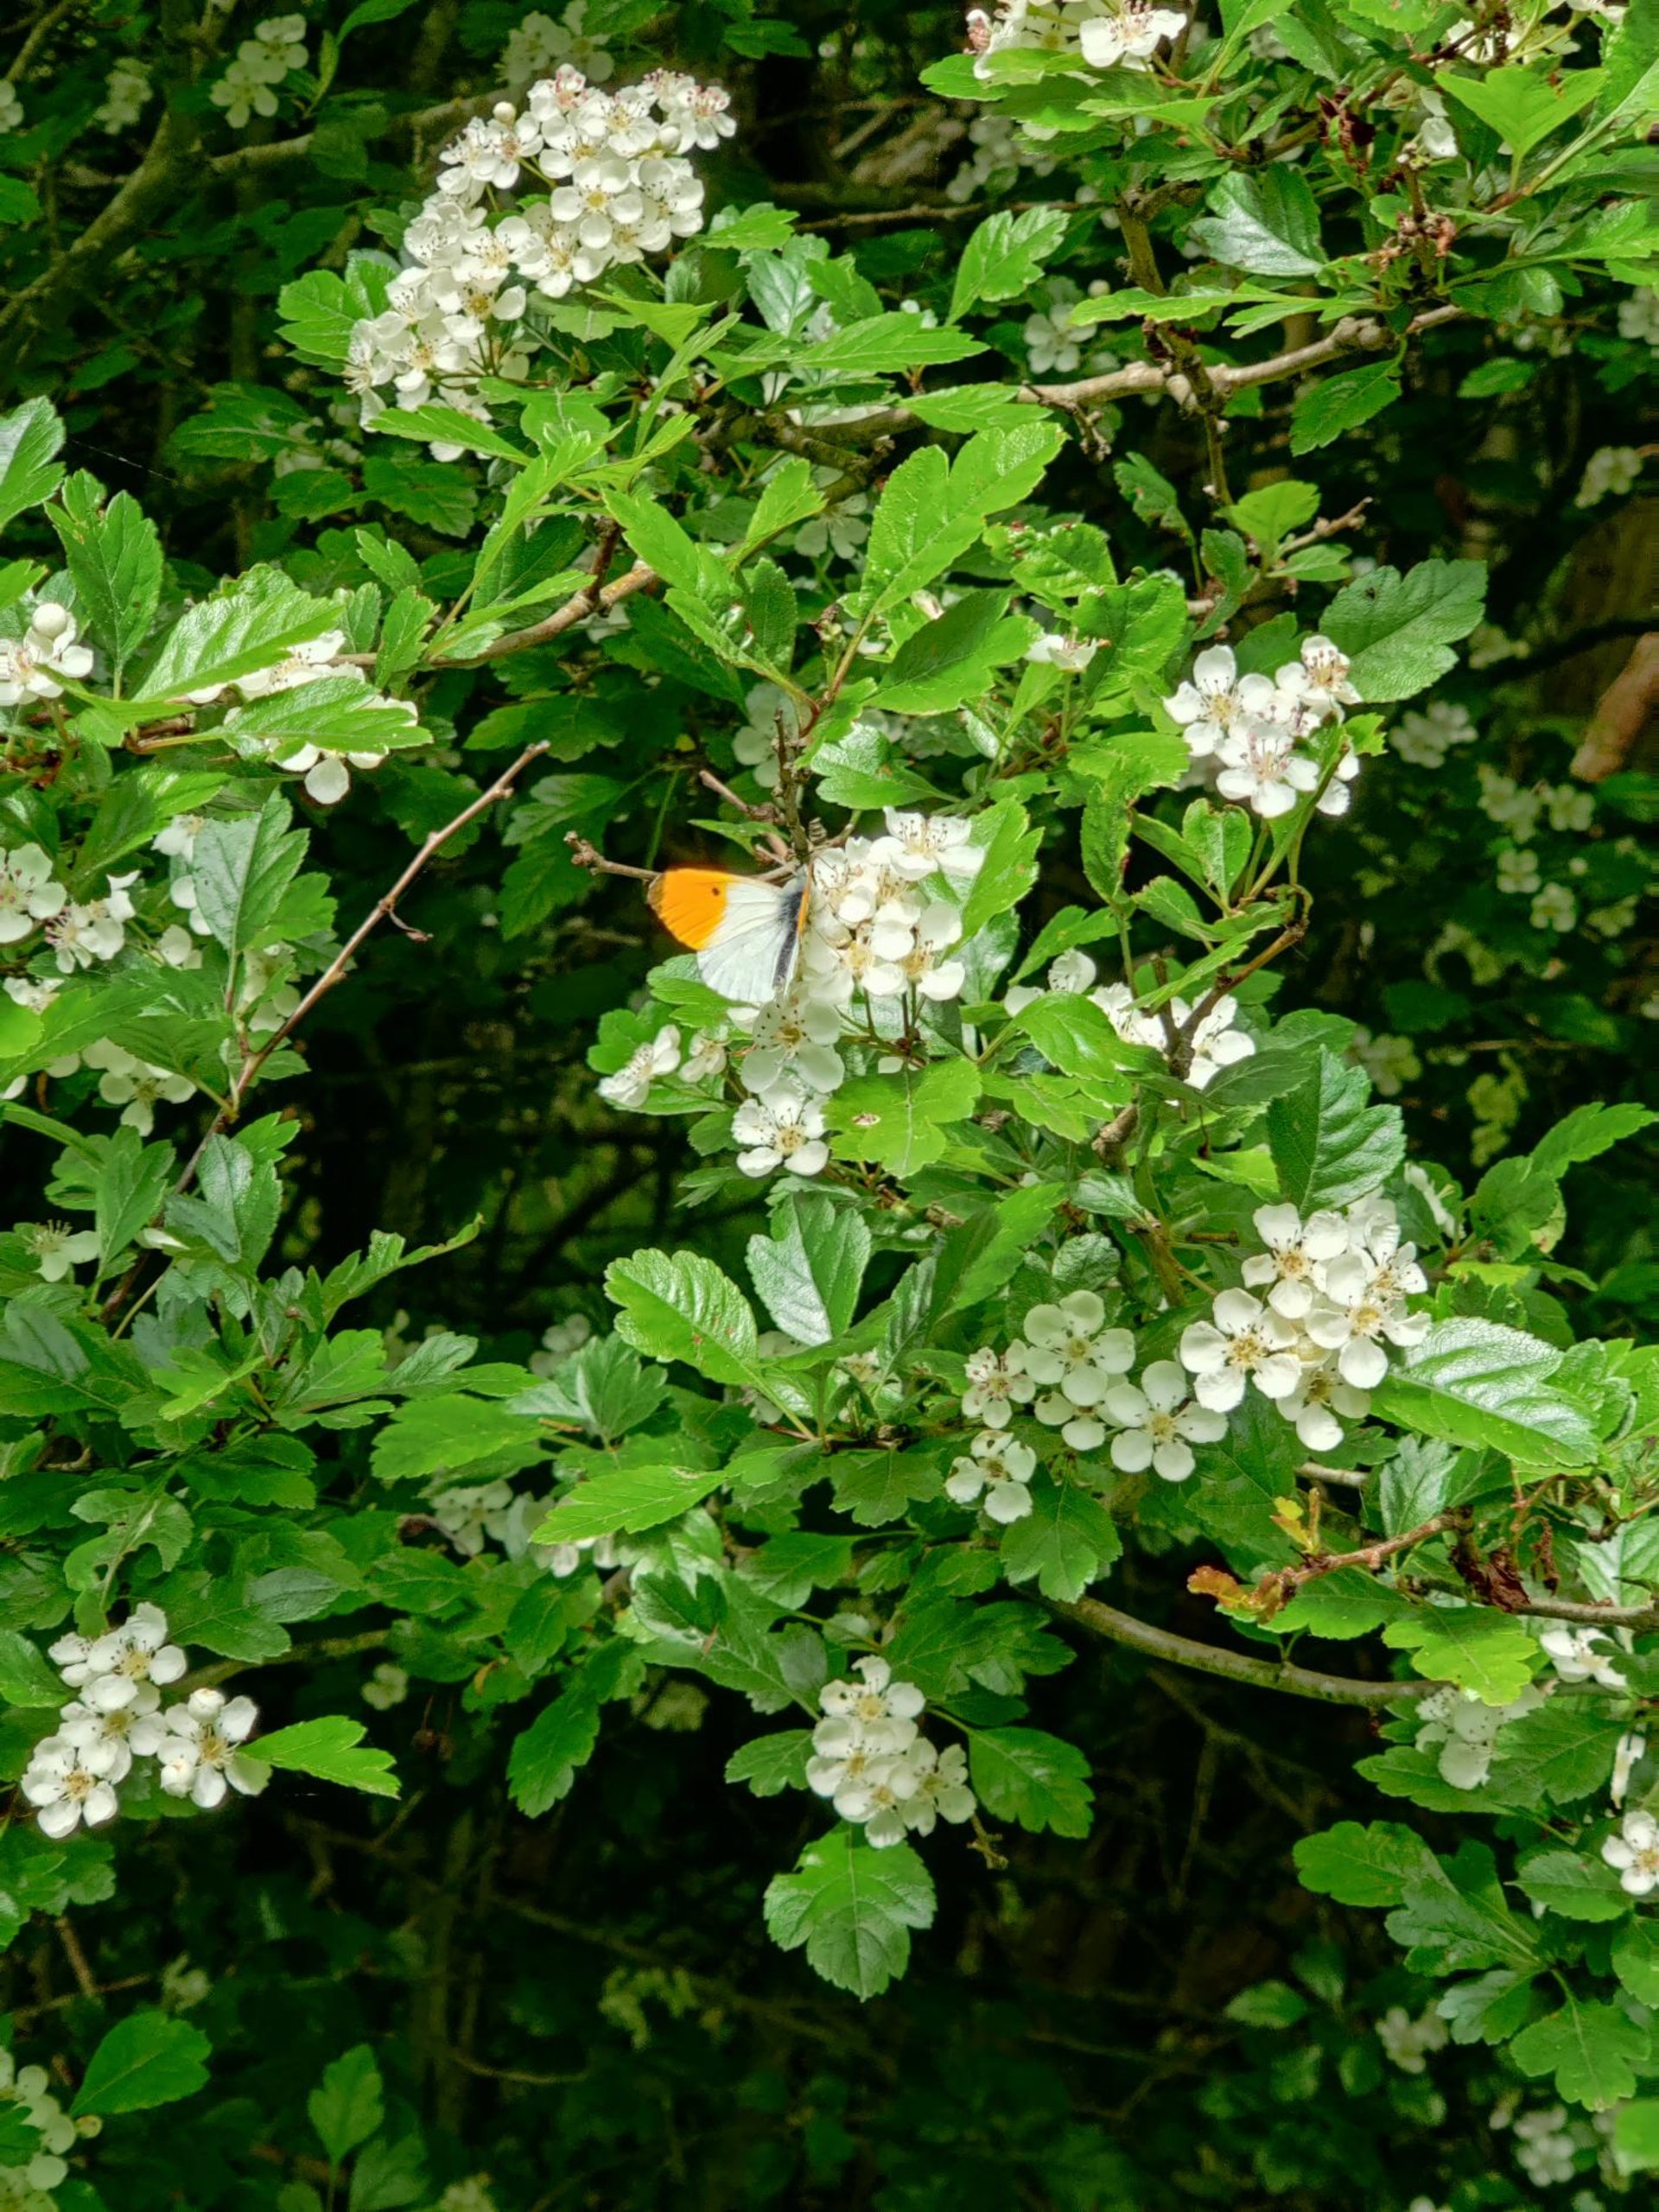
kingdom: Animalia
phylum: Arthropoda
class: Insecta
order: Lepidoptera
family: Pieridae
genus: Anthocharis
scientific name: Anthocharis cardamines
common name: Aurora
